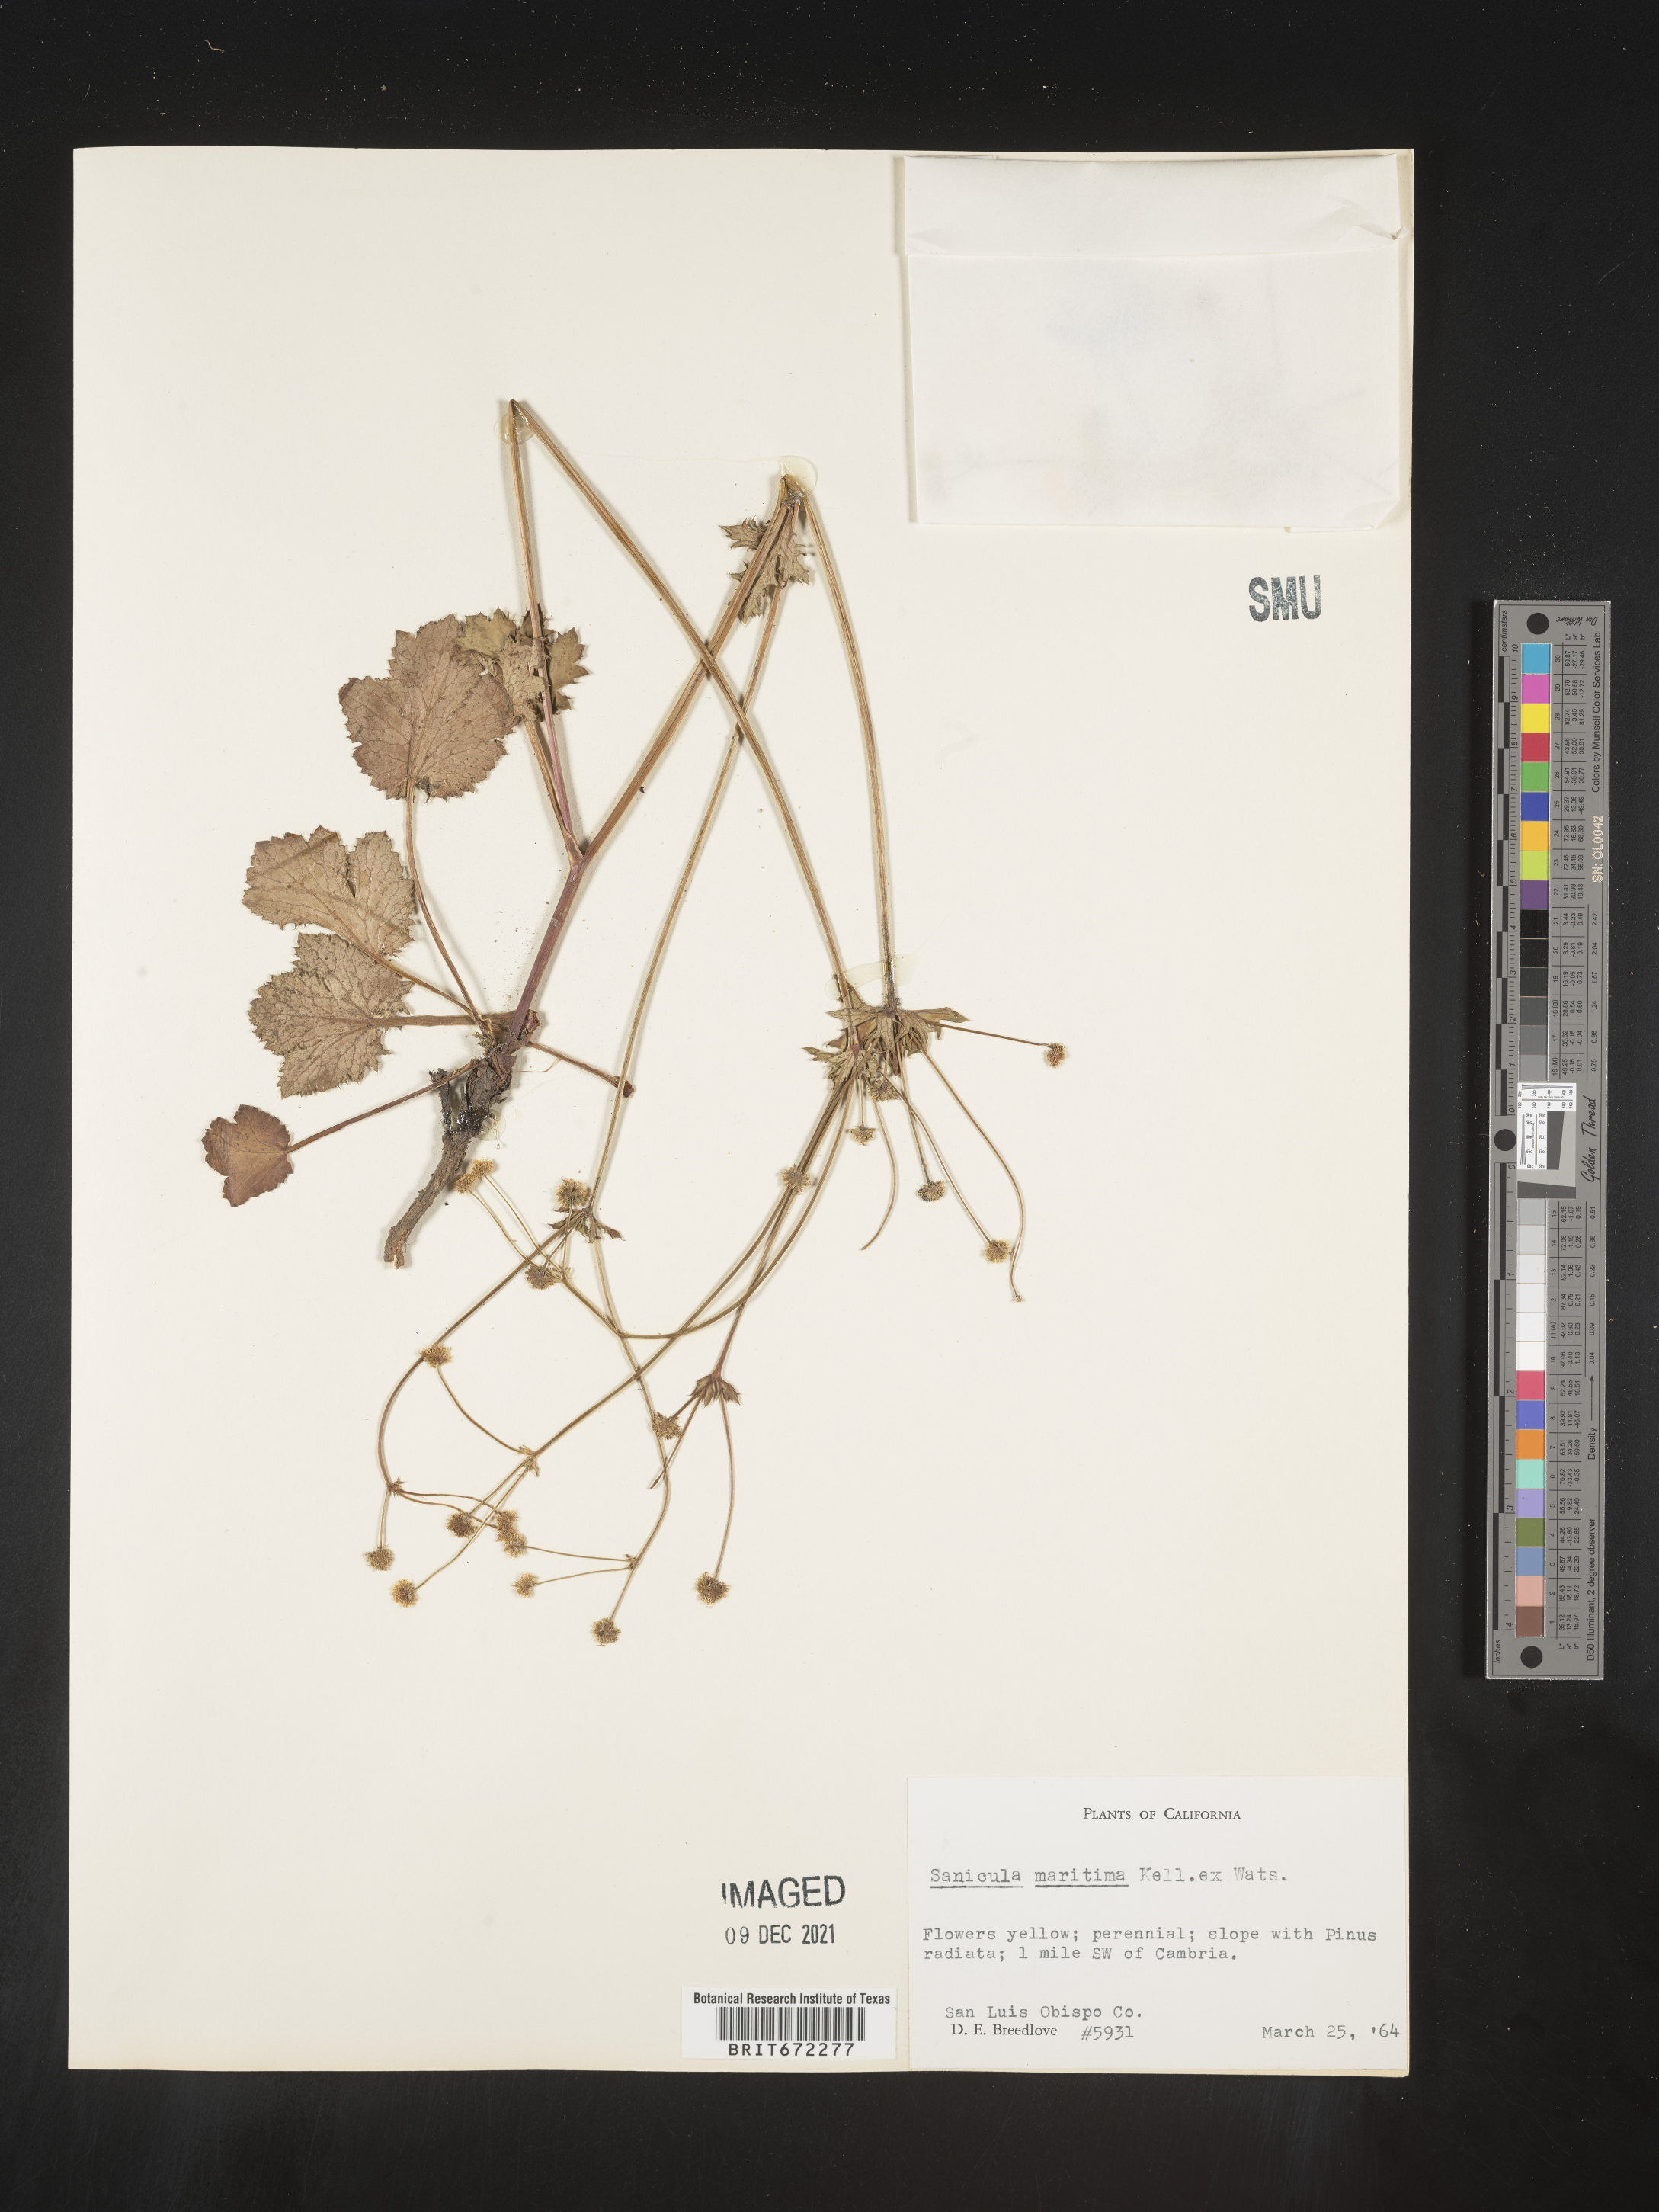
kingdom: Plantae
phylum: Tracheophyta
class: Magnoliopsida
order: Apiales
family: Apiaceae
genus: Sanicula
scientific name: Sanicula
